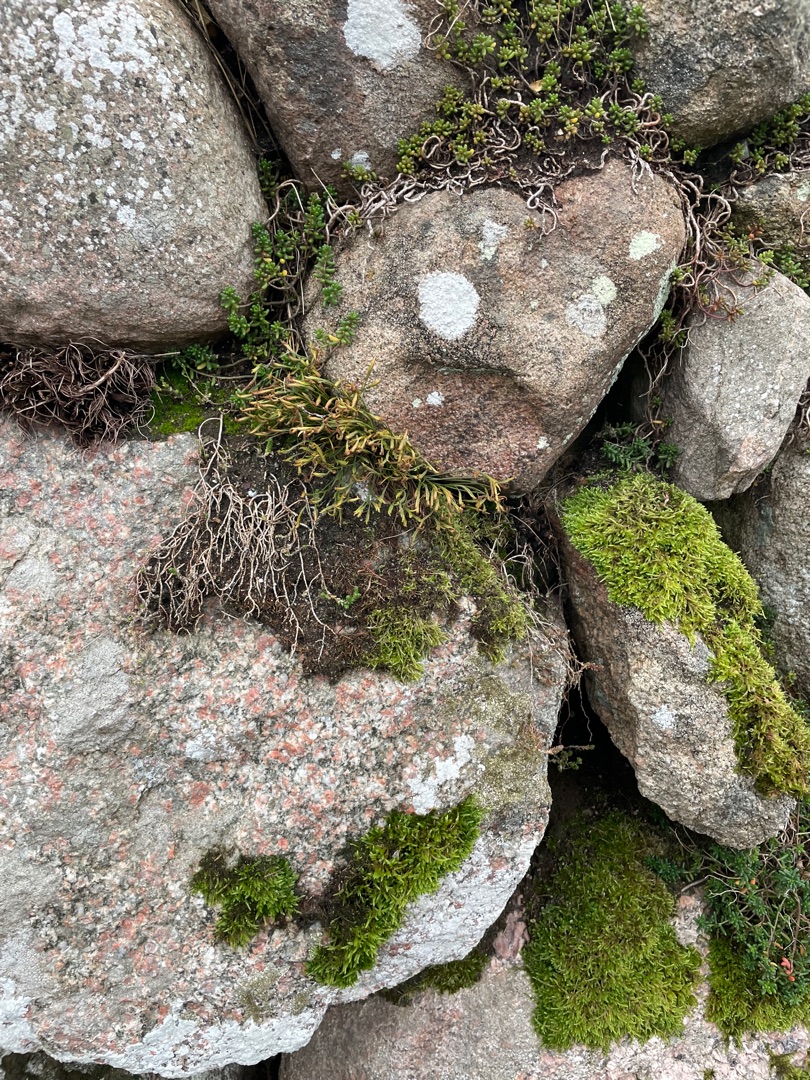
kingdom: Plantae
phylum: Tracheophyta
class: Polypodiopsida
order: Polypodiales
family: Aspleniaceae
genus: Asplenium
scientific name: Asplenium septentrionale
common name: Nordisk radeløv
